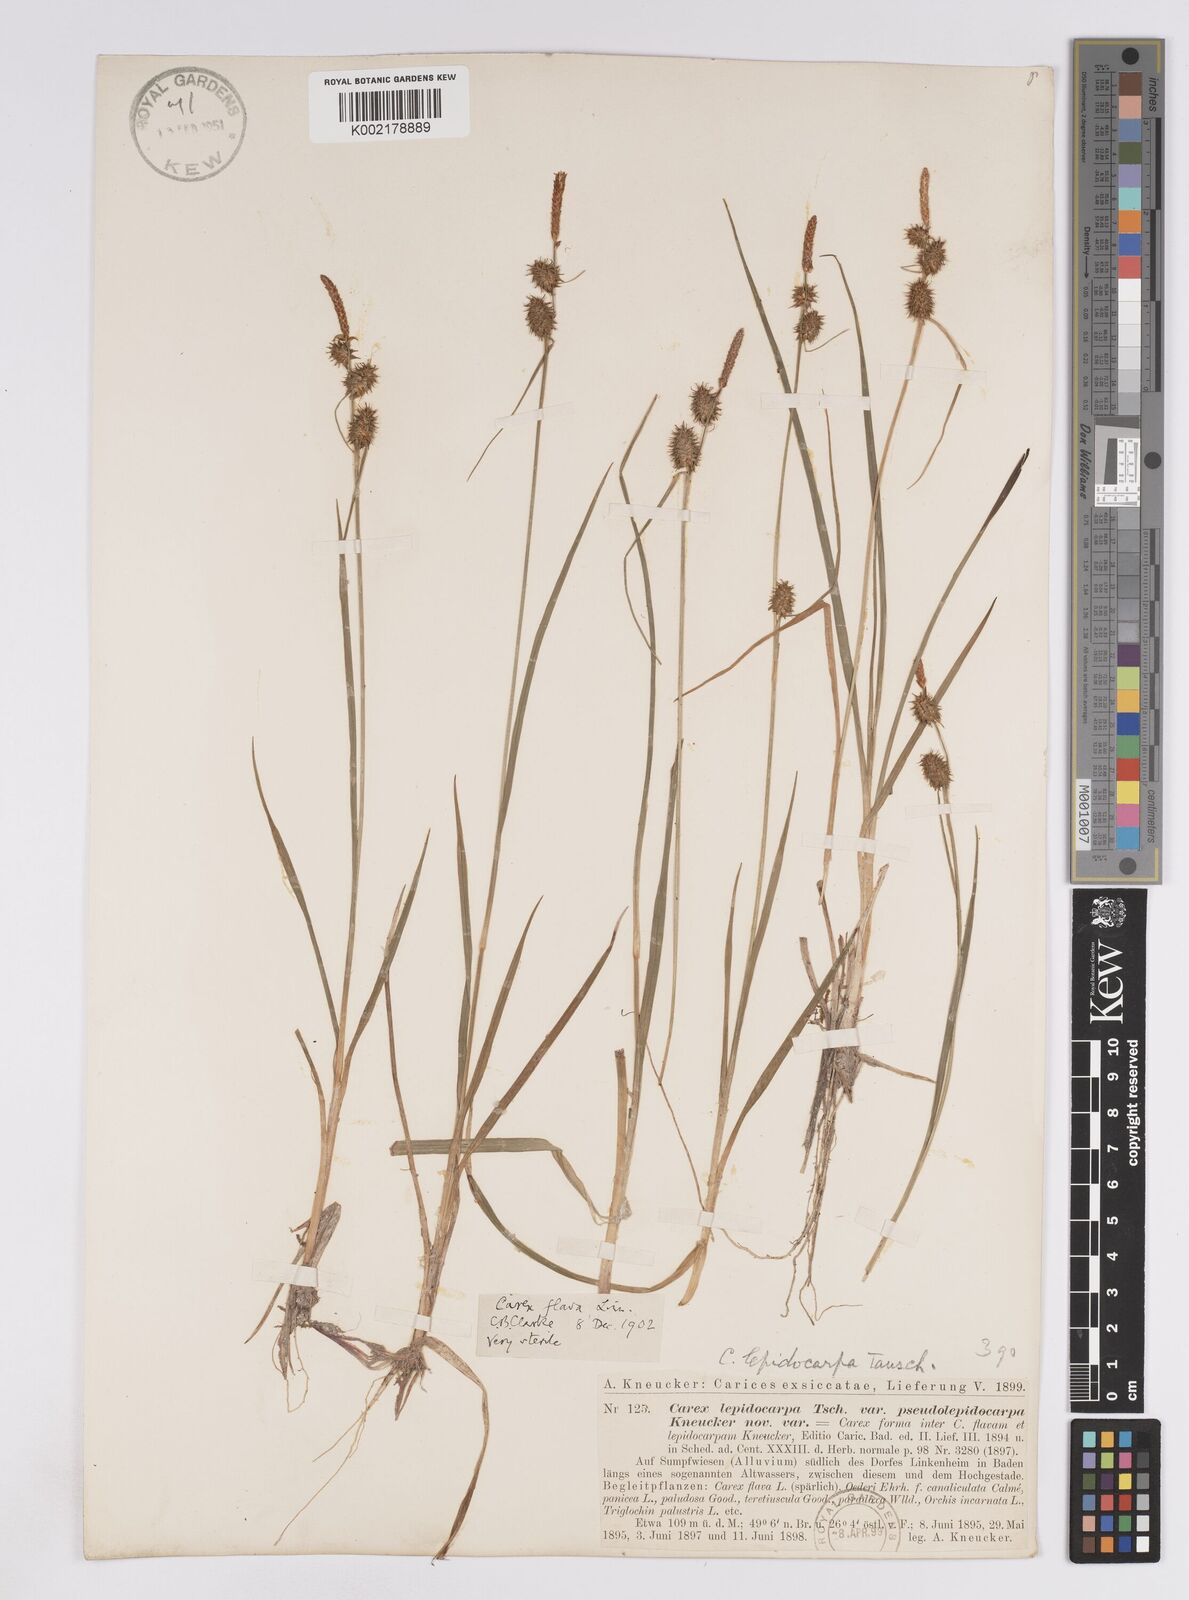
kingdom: Plantae
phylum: Tracheophyta
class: Liliopsida
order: Poales
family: Cyperaceae
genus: Carex
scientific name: Carex lepidocarpa
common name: Long-stalked yellow-sedge
